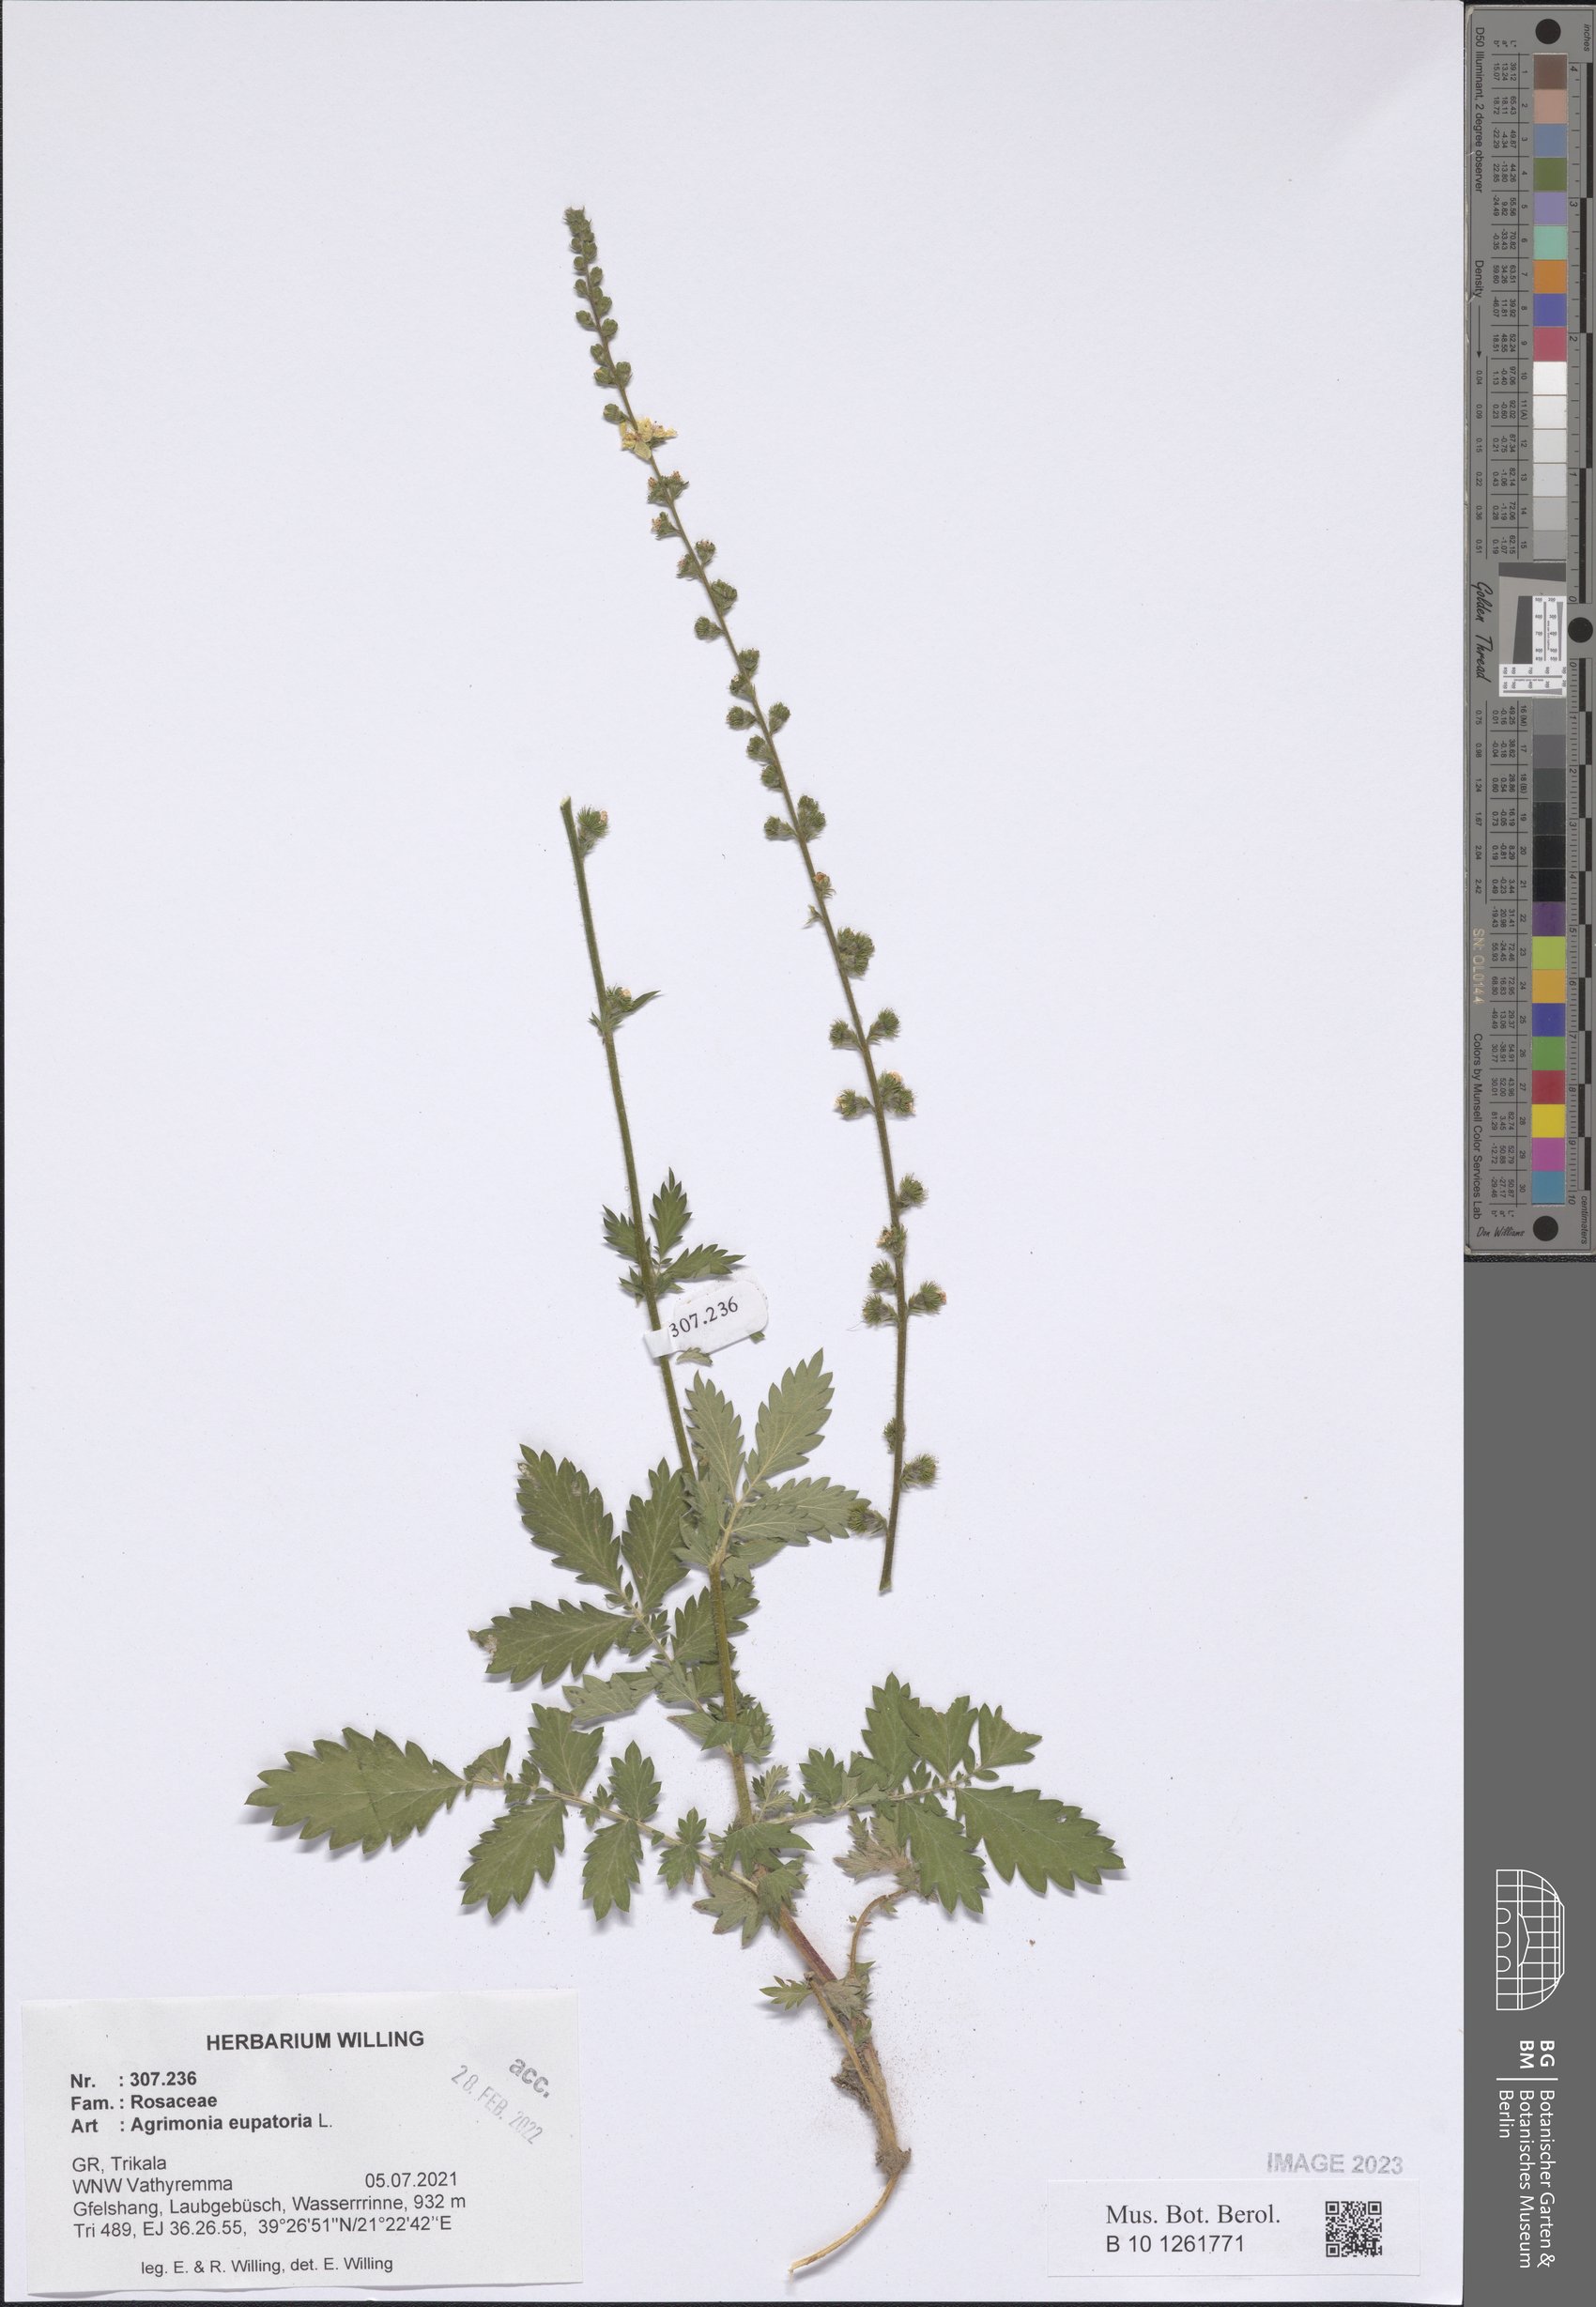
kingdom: Plantae
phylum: Tracheophyta
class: Magnoliopsida
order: Rosales
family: Rosaceae
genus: Agrimonia
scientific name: Agrimonia eupatoria
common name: Agrimony
